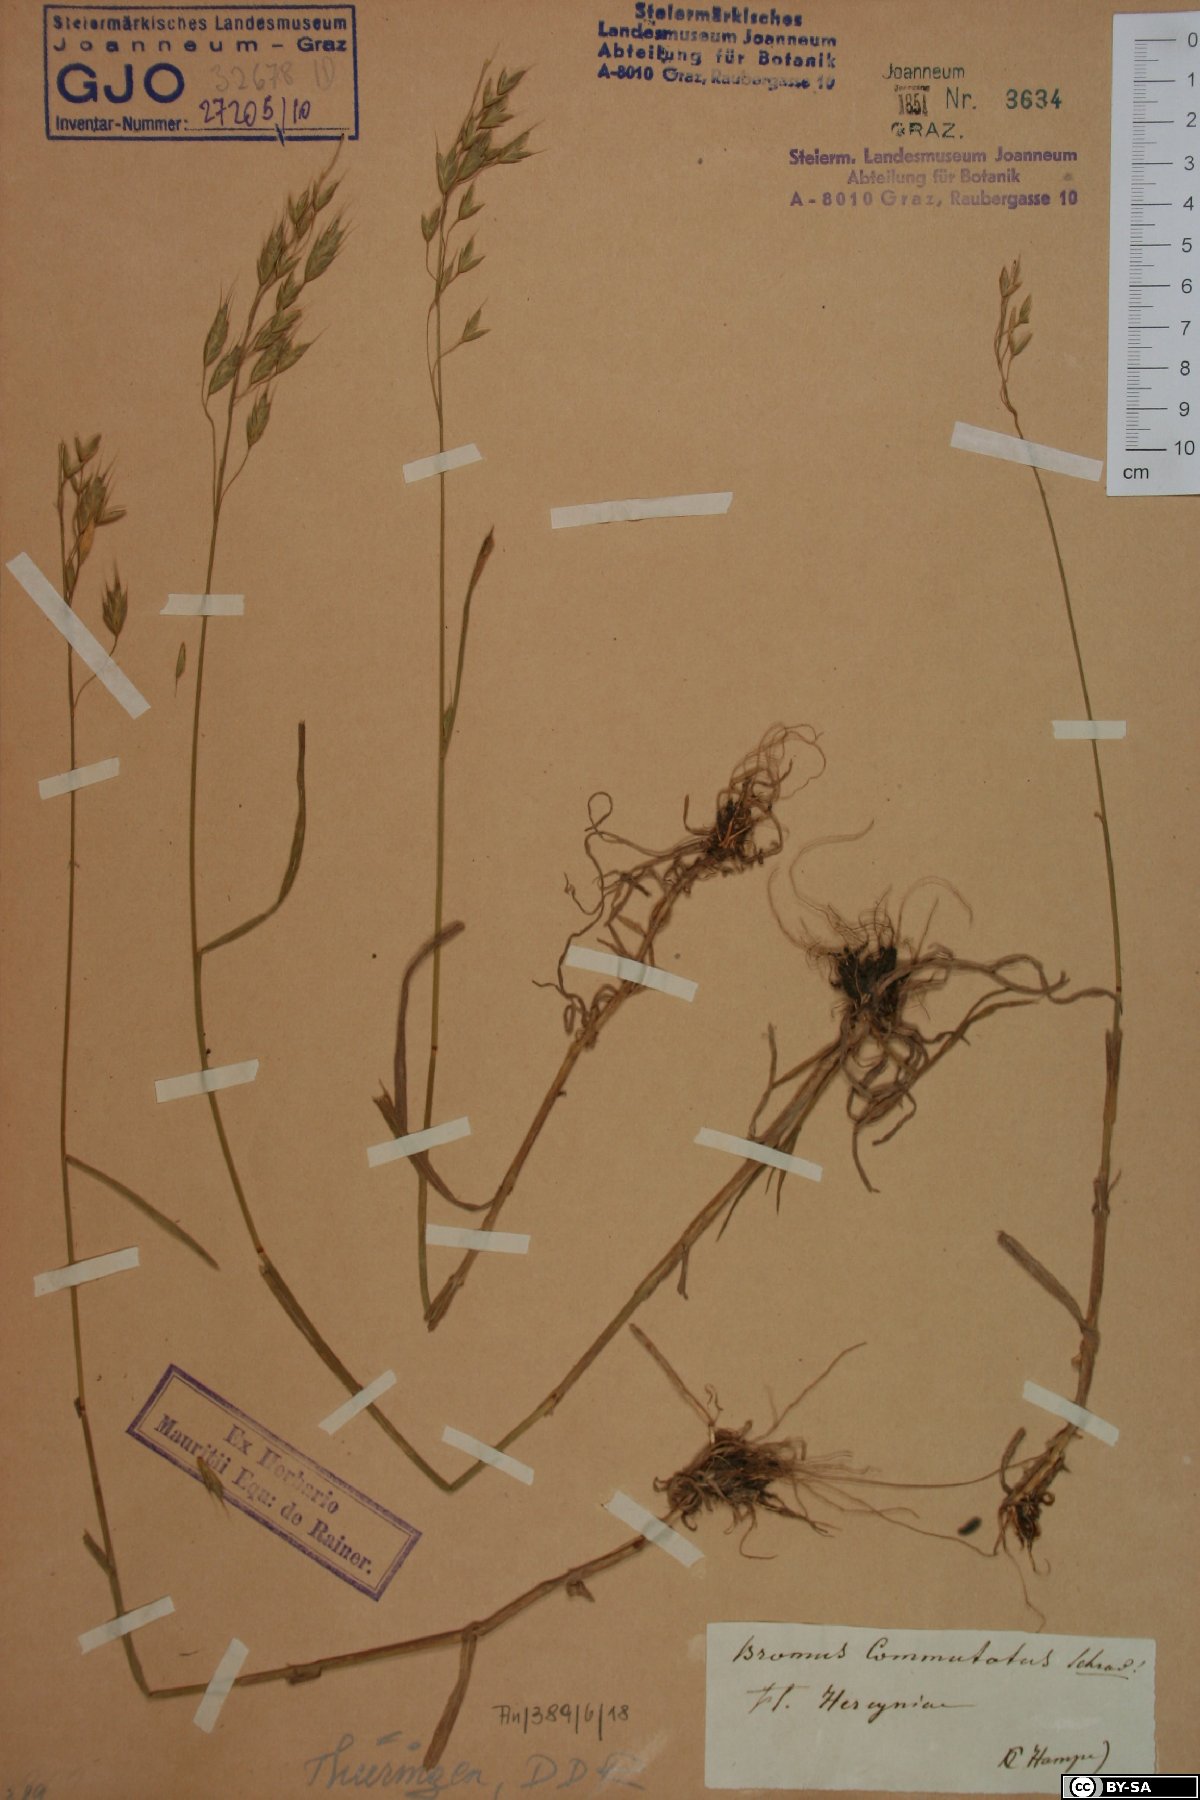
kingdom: Plantae
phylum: Tracheophyta
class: Liliopsida
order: Poales
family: Poaceae
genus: Bromus
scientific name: Bromus commutatus
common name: Meadow brome
